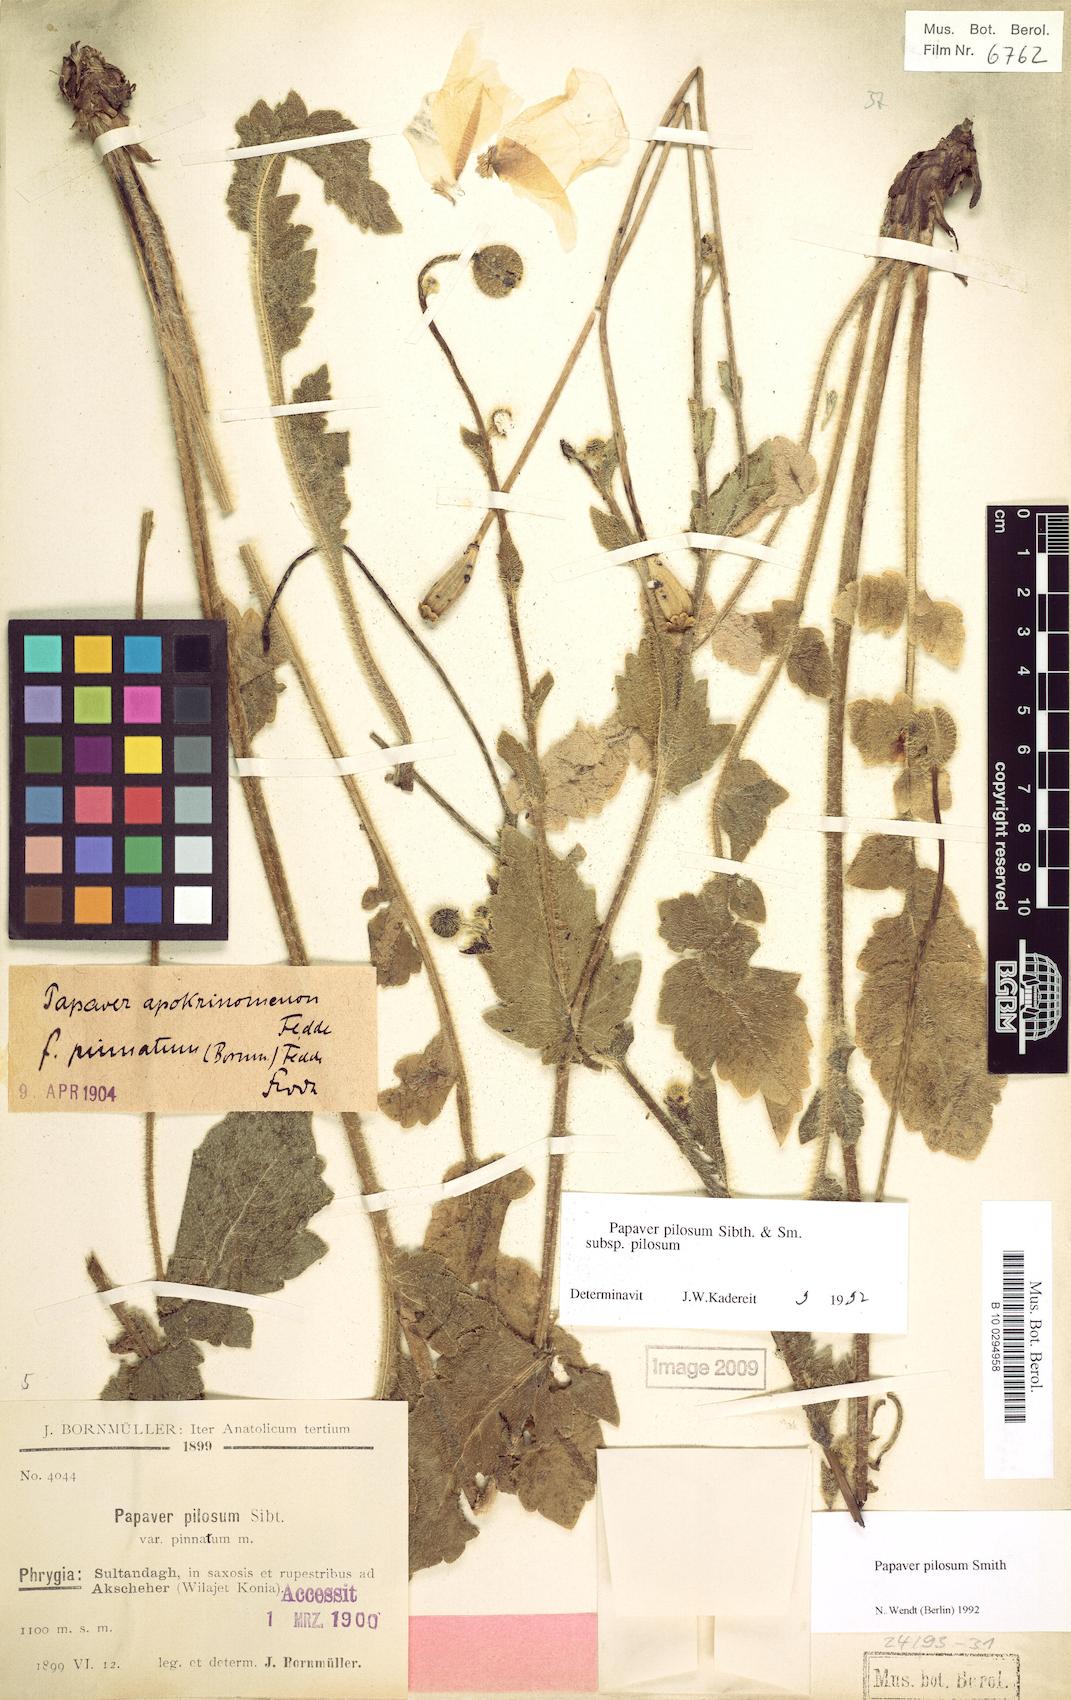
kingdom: Plantae
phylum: Tracheophyta
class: Magnoliopsida
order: Ranunculales
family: Papaveraceae
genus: Papaver
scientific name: Papaver pilosum
